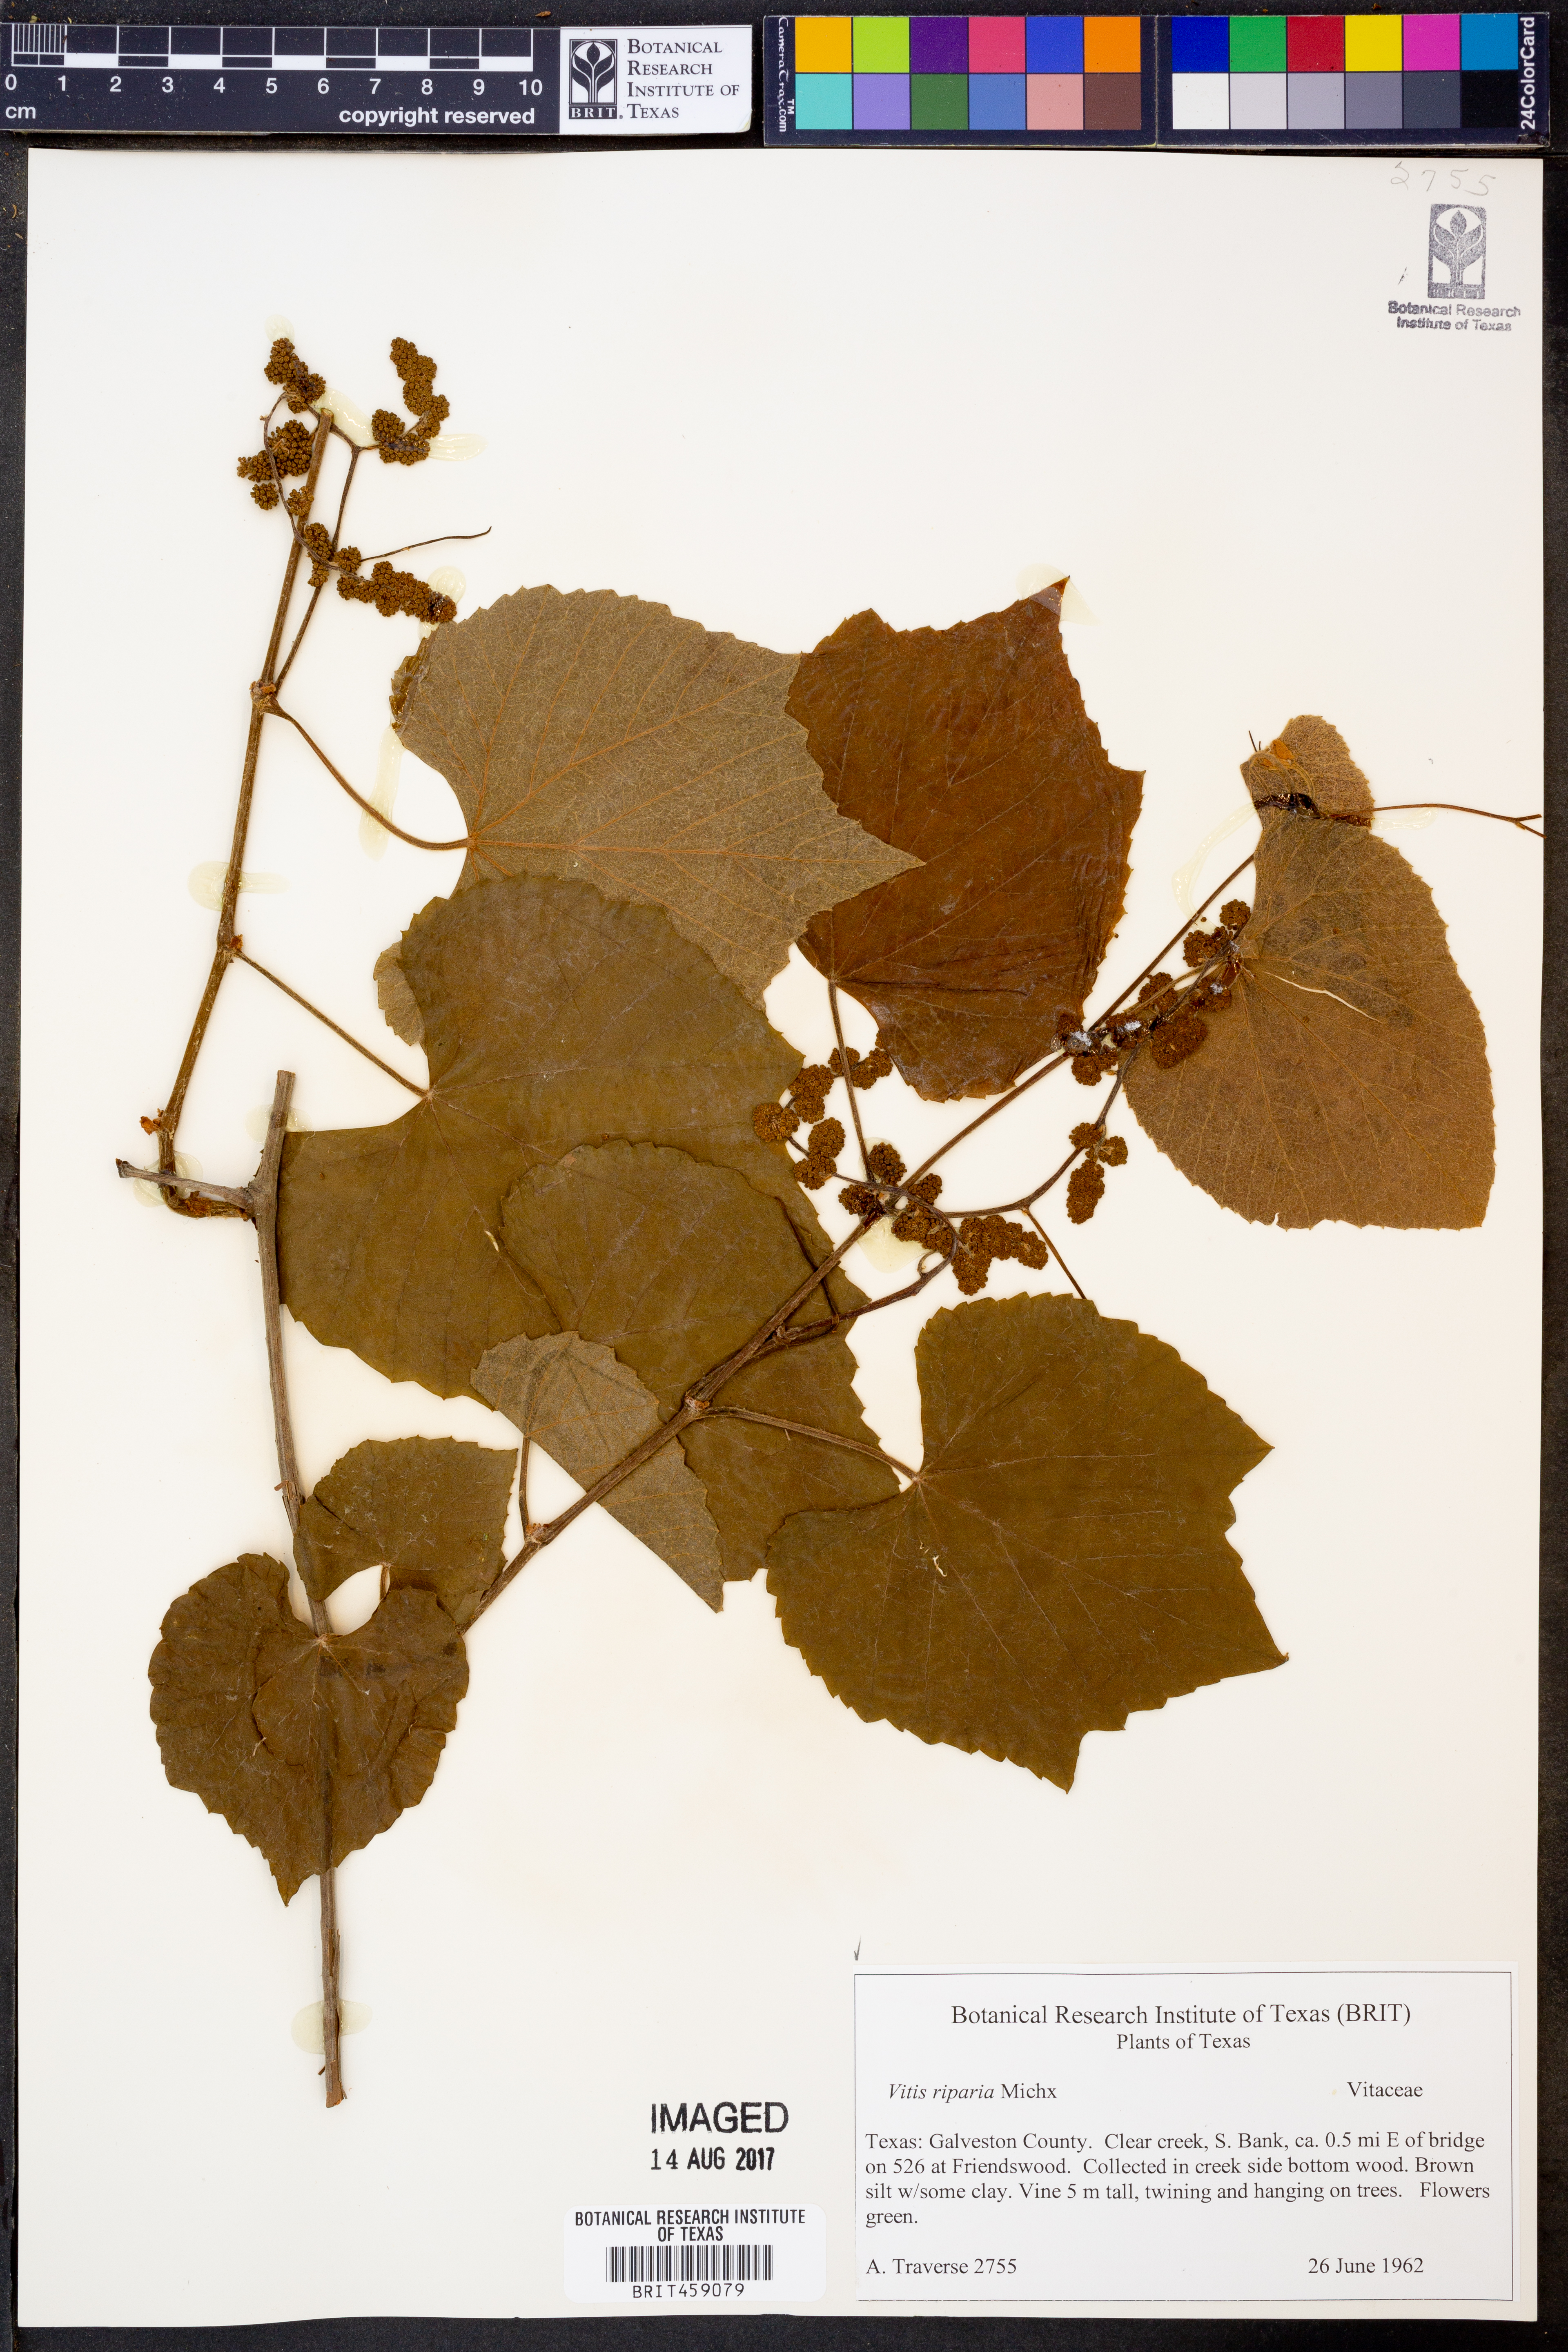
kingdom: Plantae
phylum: Tracheophyta
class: Magnoliopsida
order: Vitales
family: Vitaceae
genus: Vitis
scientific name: Vitis riparia
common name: Frost grape
